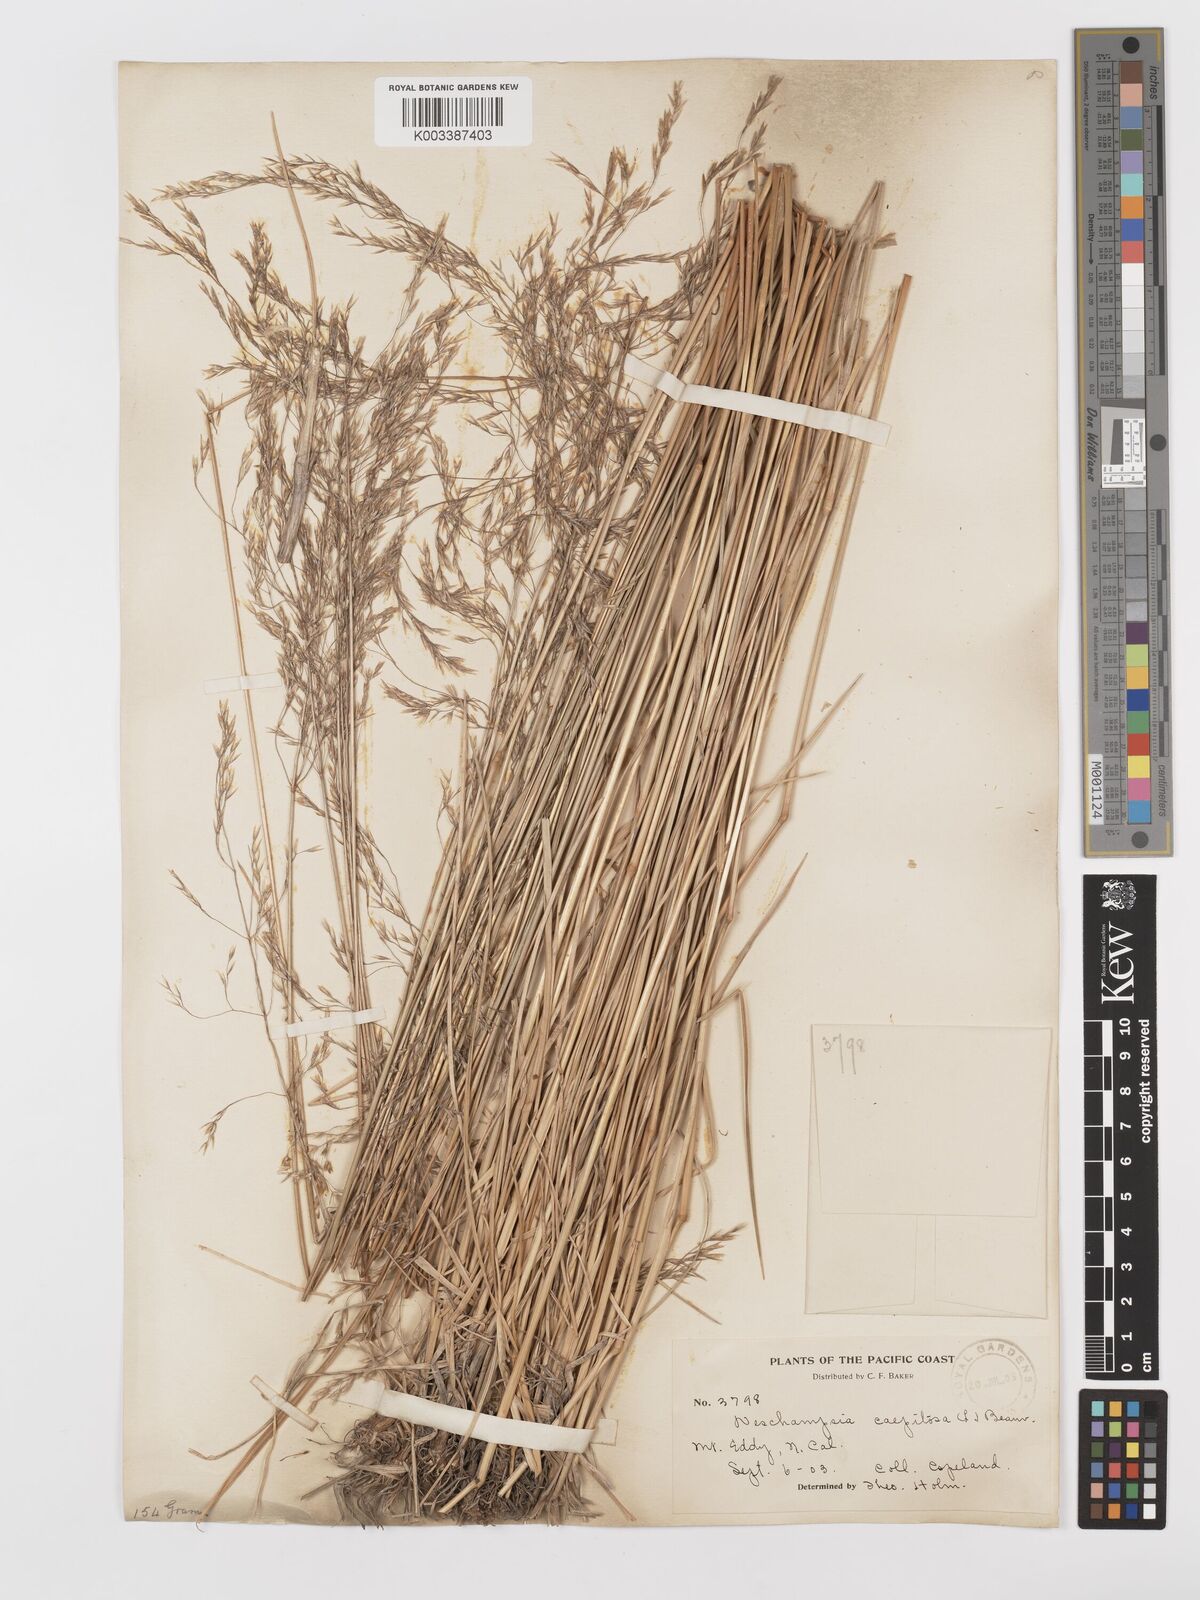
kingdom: Plantae
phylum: Tracheophyta
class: Liliopsida
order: Poales
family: Poaceae
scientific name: Poaceae
